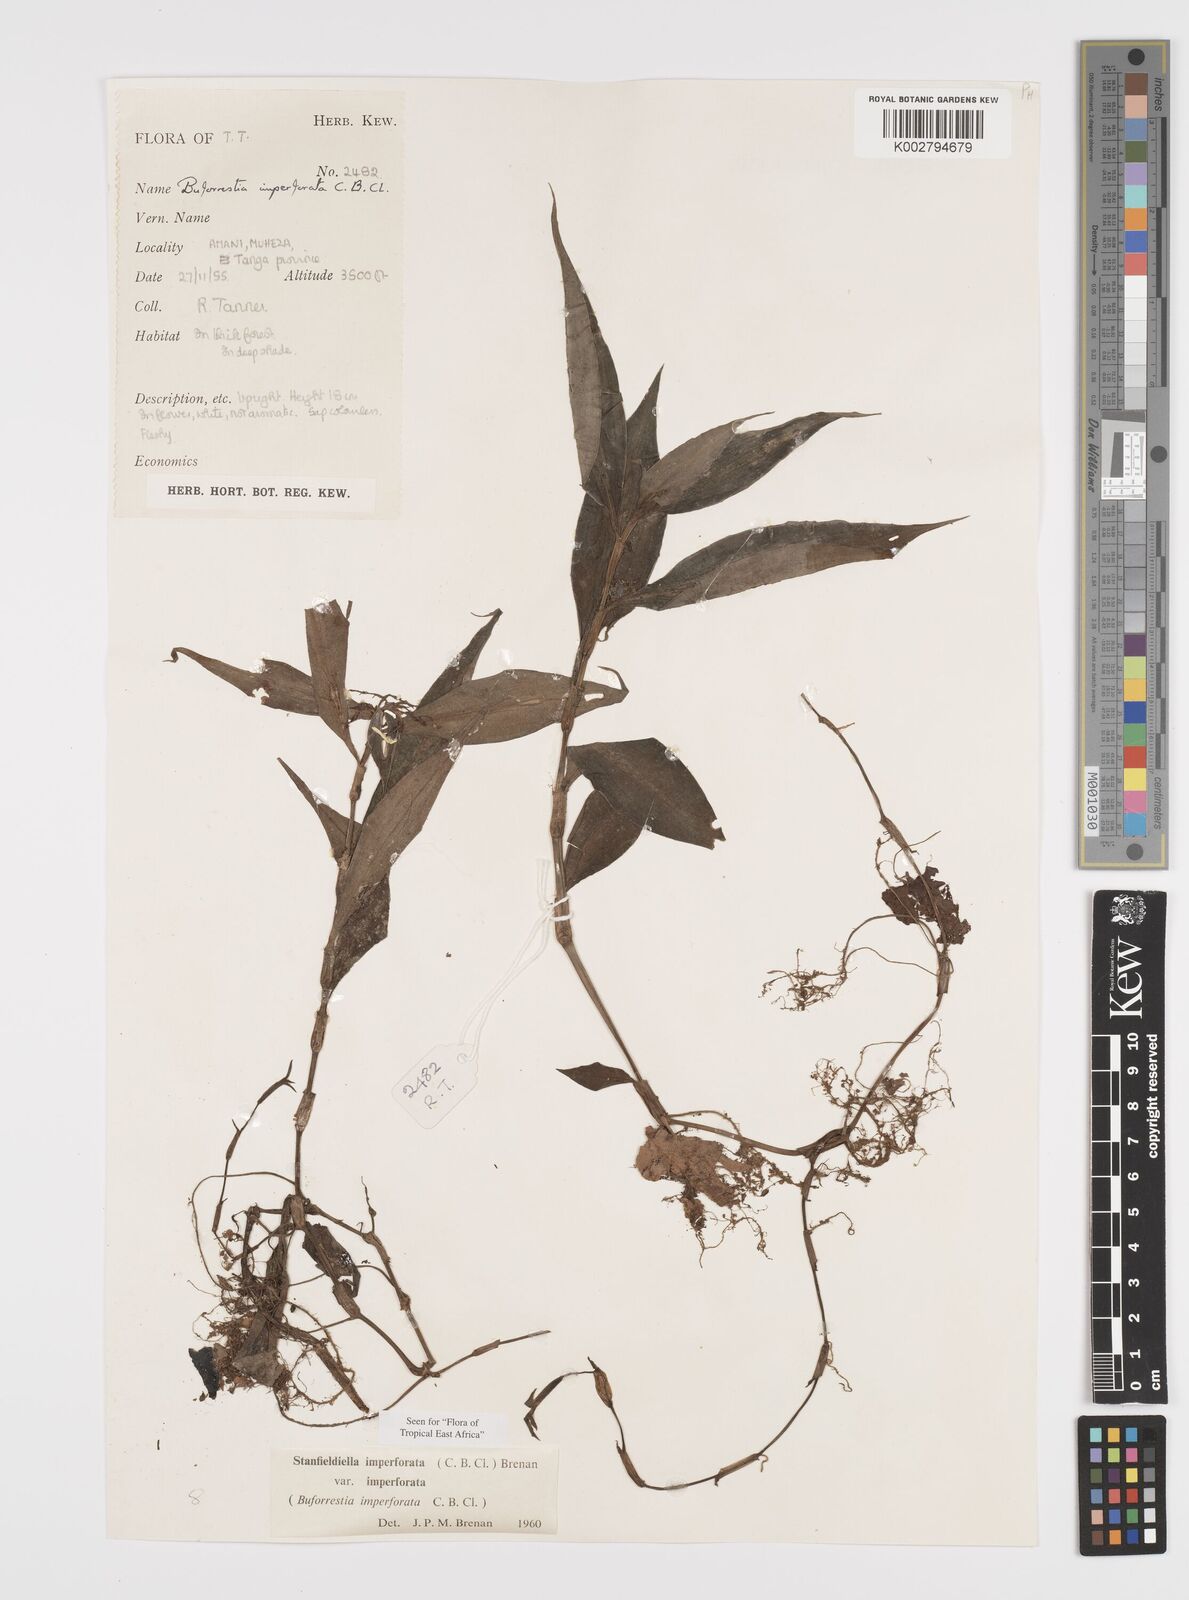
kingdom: Plantae
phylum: Tracheophyta
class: Liliopsida
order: Commelinales
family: Commelinaceae
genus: Stanfieldiella
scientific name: Stanfieldiella imperforata
